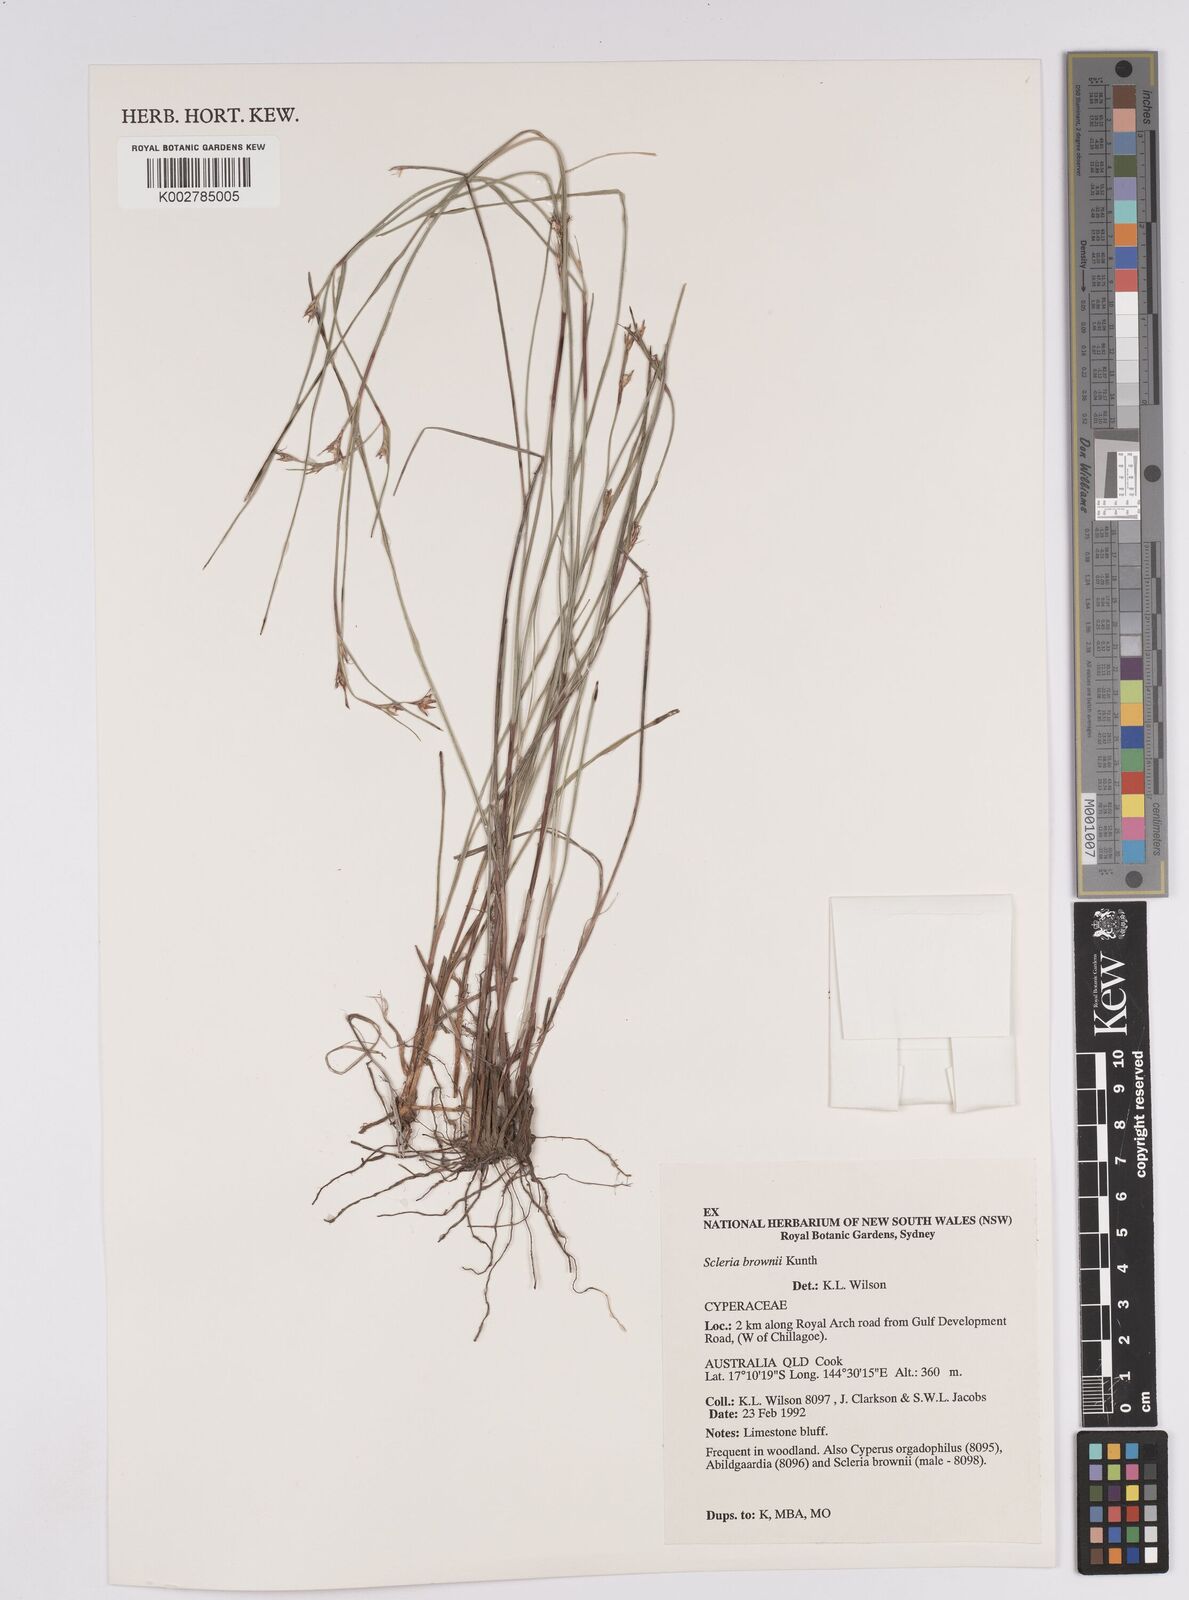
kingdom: Plantae
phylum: Tracheophyta
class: Liliopsida
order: Poales
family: Cyperaceae
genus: Scleria
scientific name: Scleria brownii
